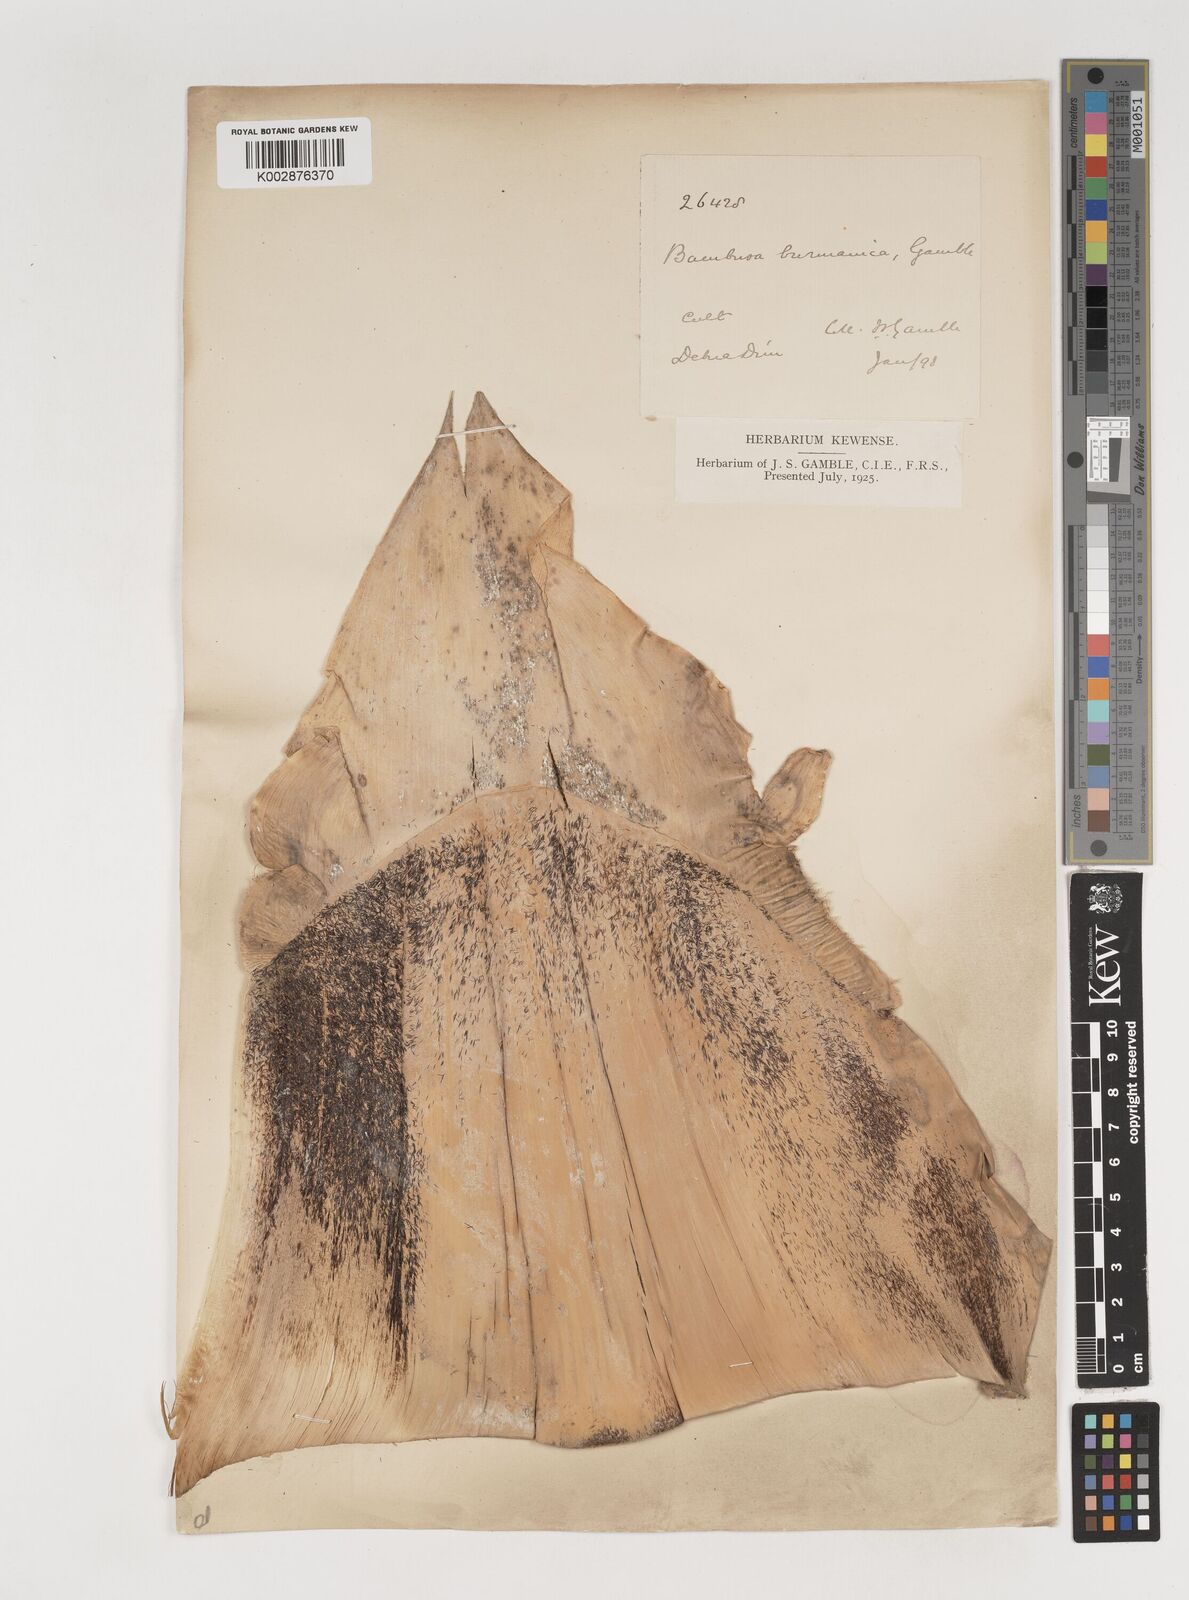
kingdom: Plantae
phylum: Tracheophyta
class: Liliopsida
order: Poales
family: Poaceae
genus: Bambusa
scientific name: Bambusa burmanica
